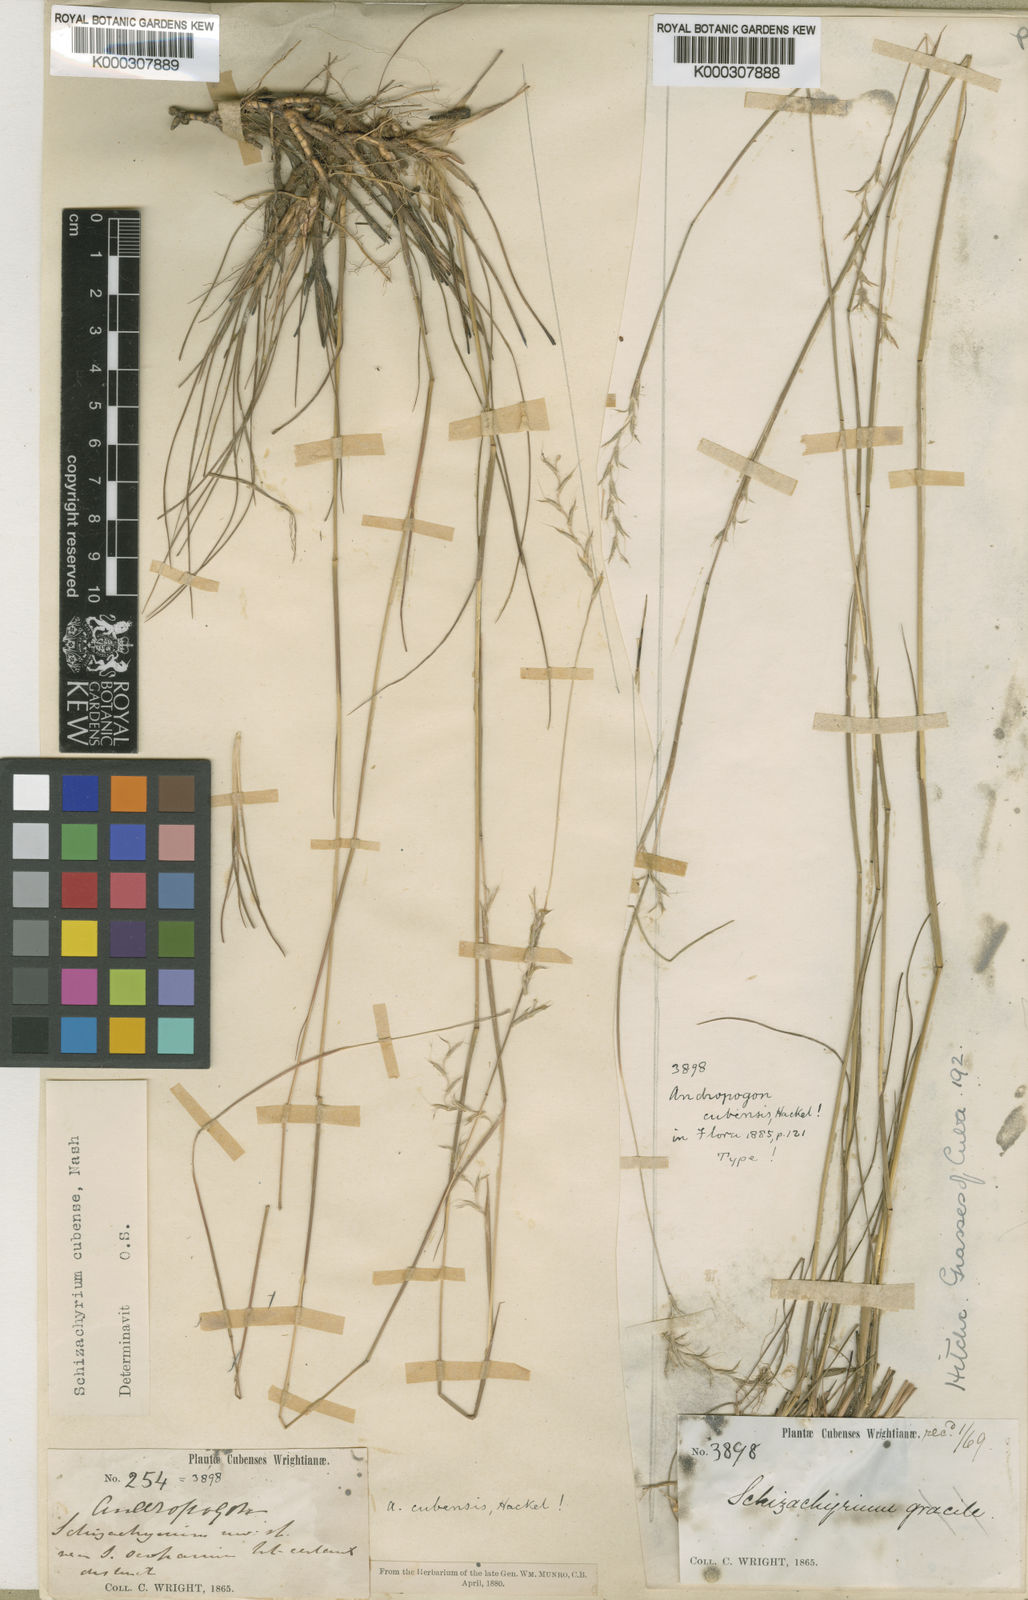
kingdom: Plantae
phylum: Tracheophyta
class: Liliopsida
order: Poales
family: Poaceae
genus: Schizachyrium
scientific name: Schizachyrium cubense
